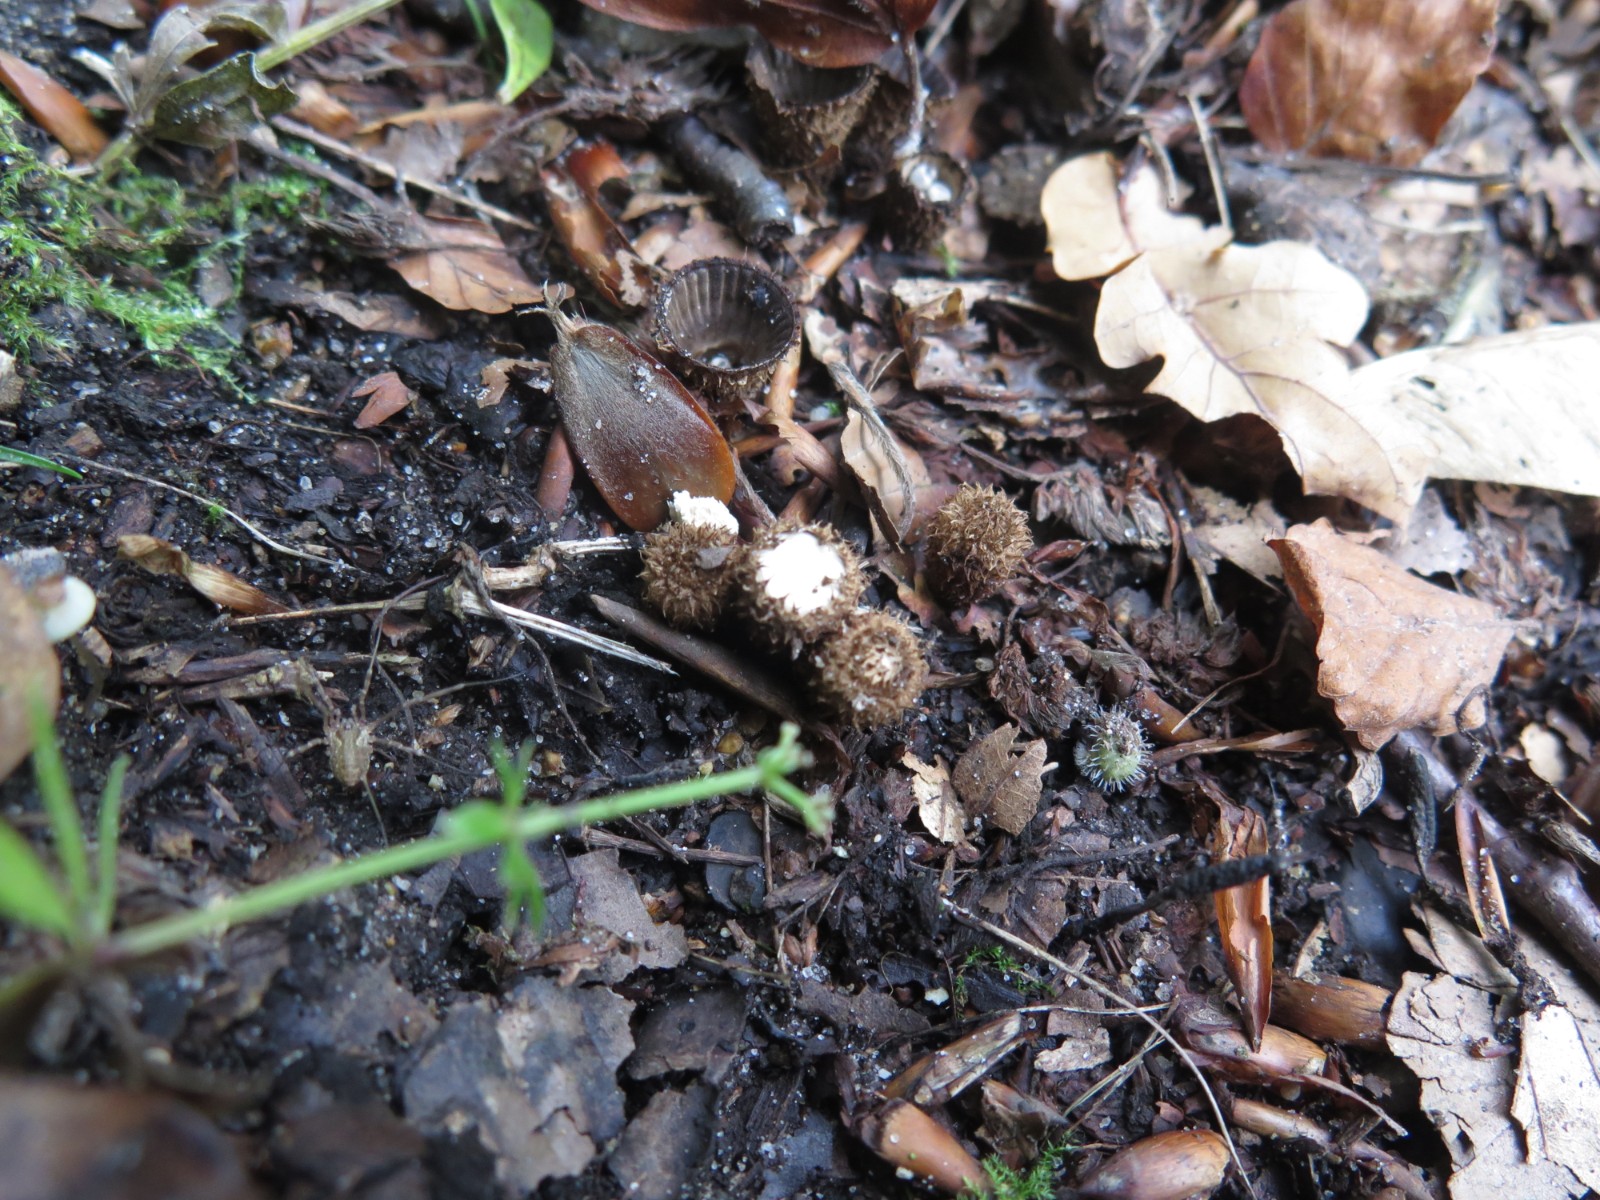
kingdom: Fungi
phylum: Basidiomycota
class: Agaricomycetes
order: Agaricales
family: Agaricaceae
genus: Cyathus
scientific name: Cyathus striatus
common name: stribet redesvamp
